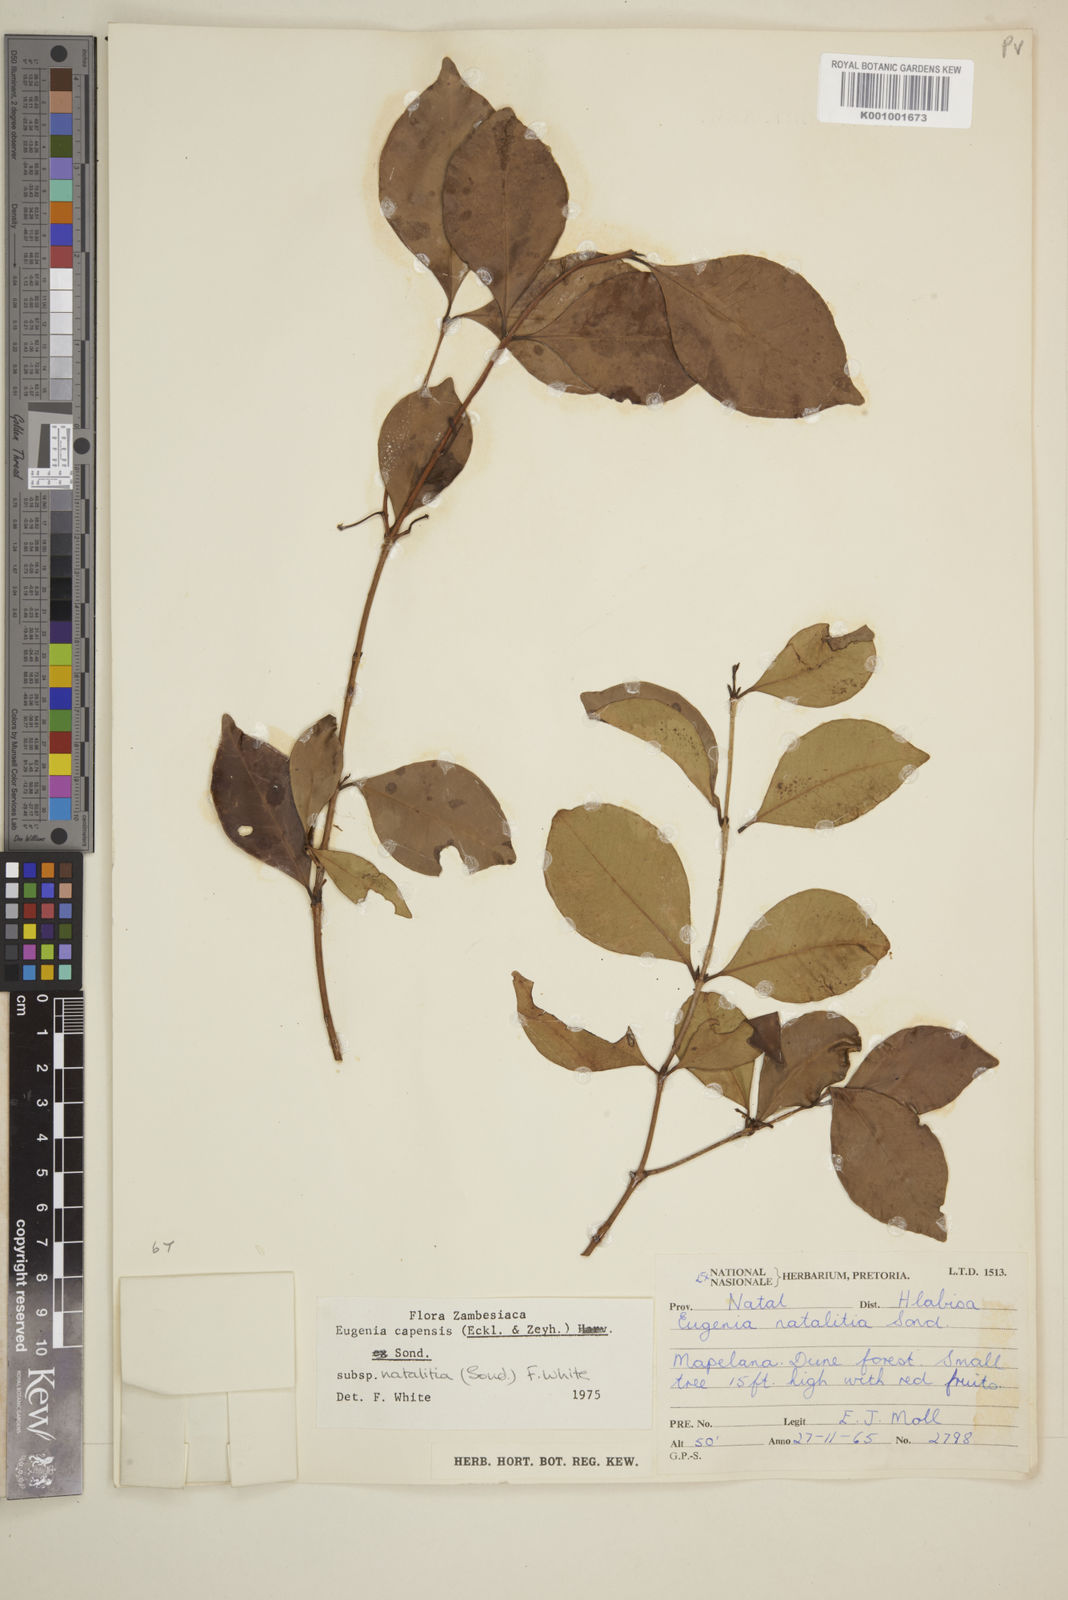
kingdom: Plantae
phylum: Tracheophyta
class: Magnoliopsida
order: Myrtales
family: Myrtaceae
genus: Eugenia
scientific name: Eugenia
